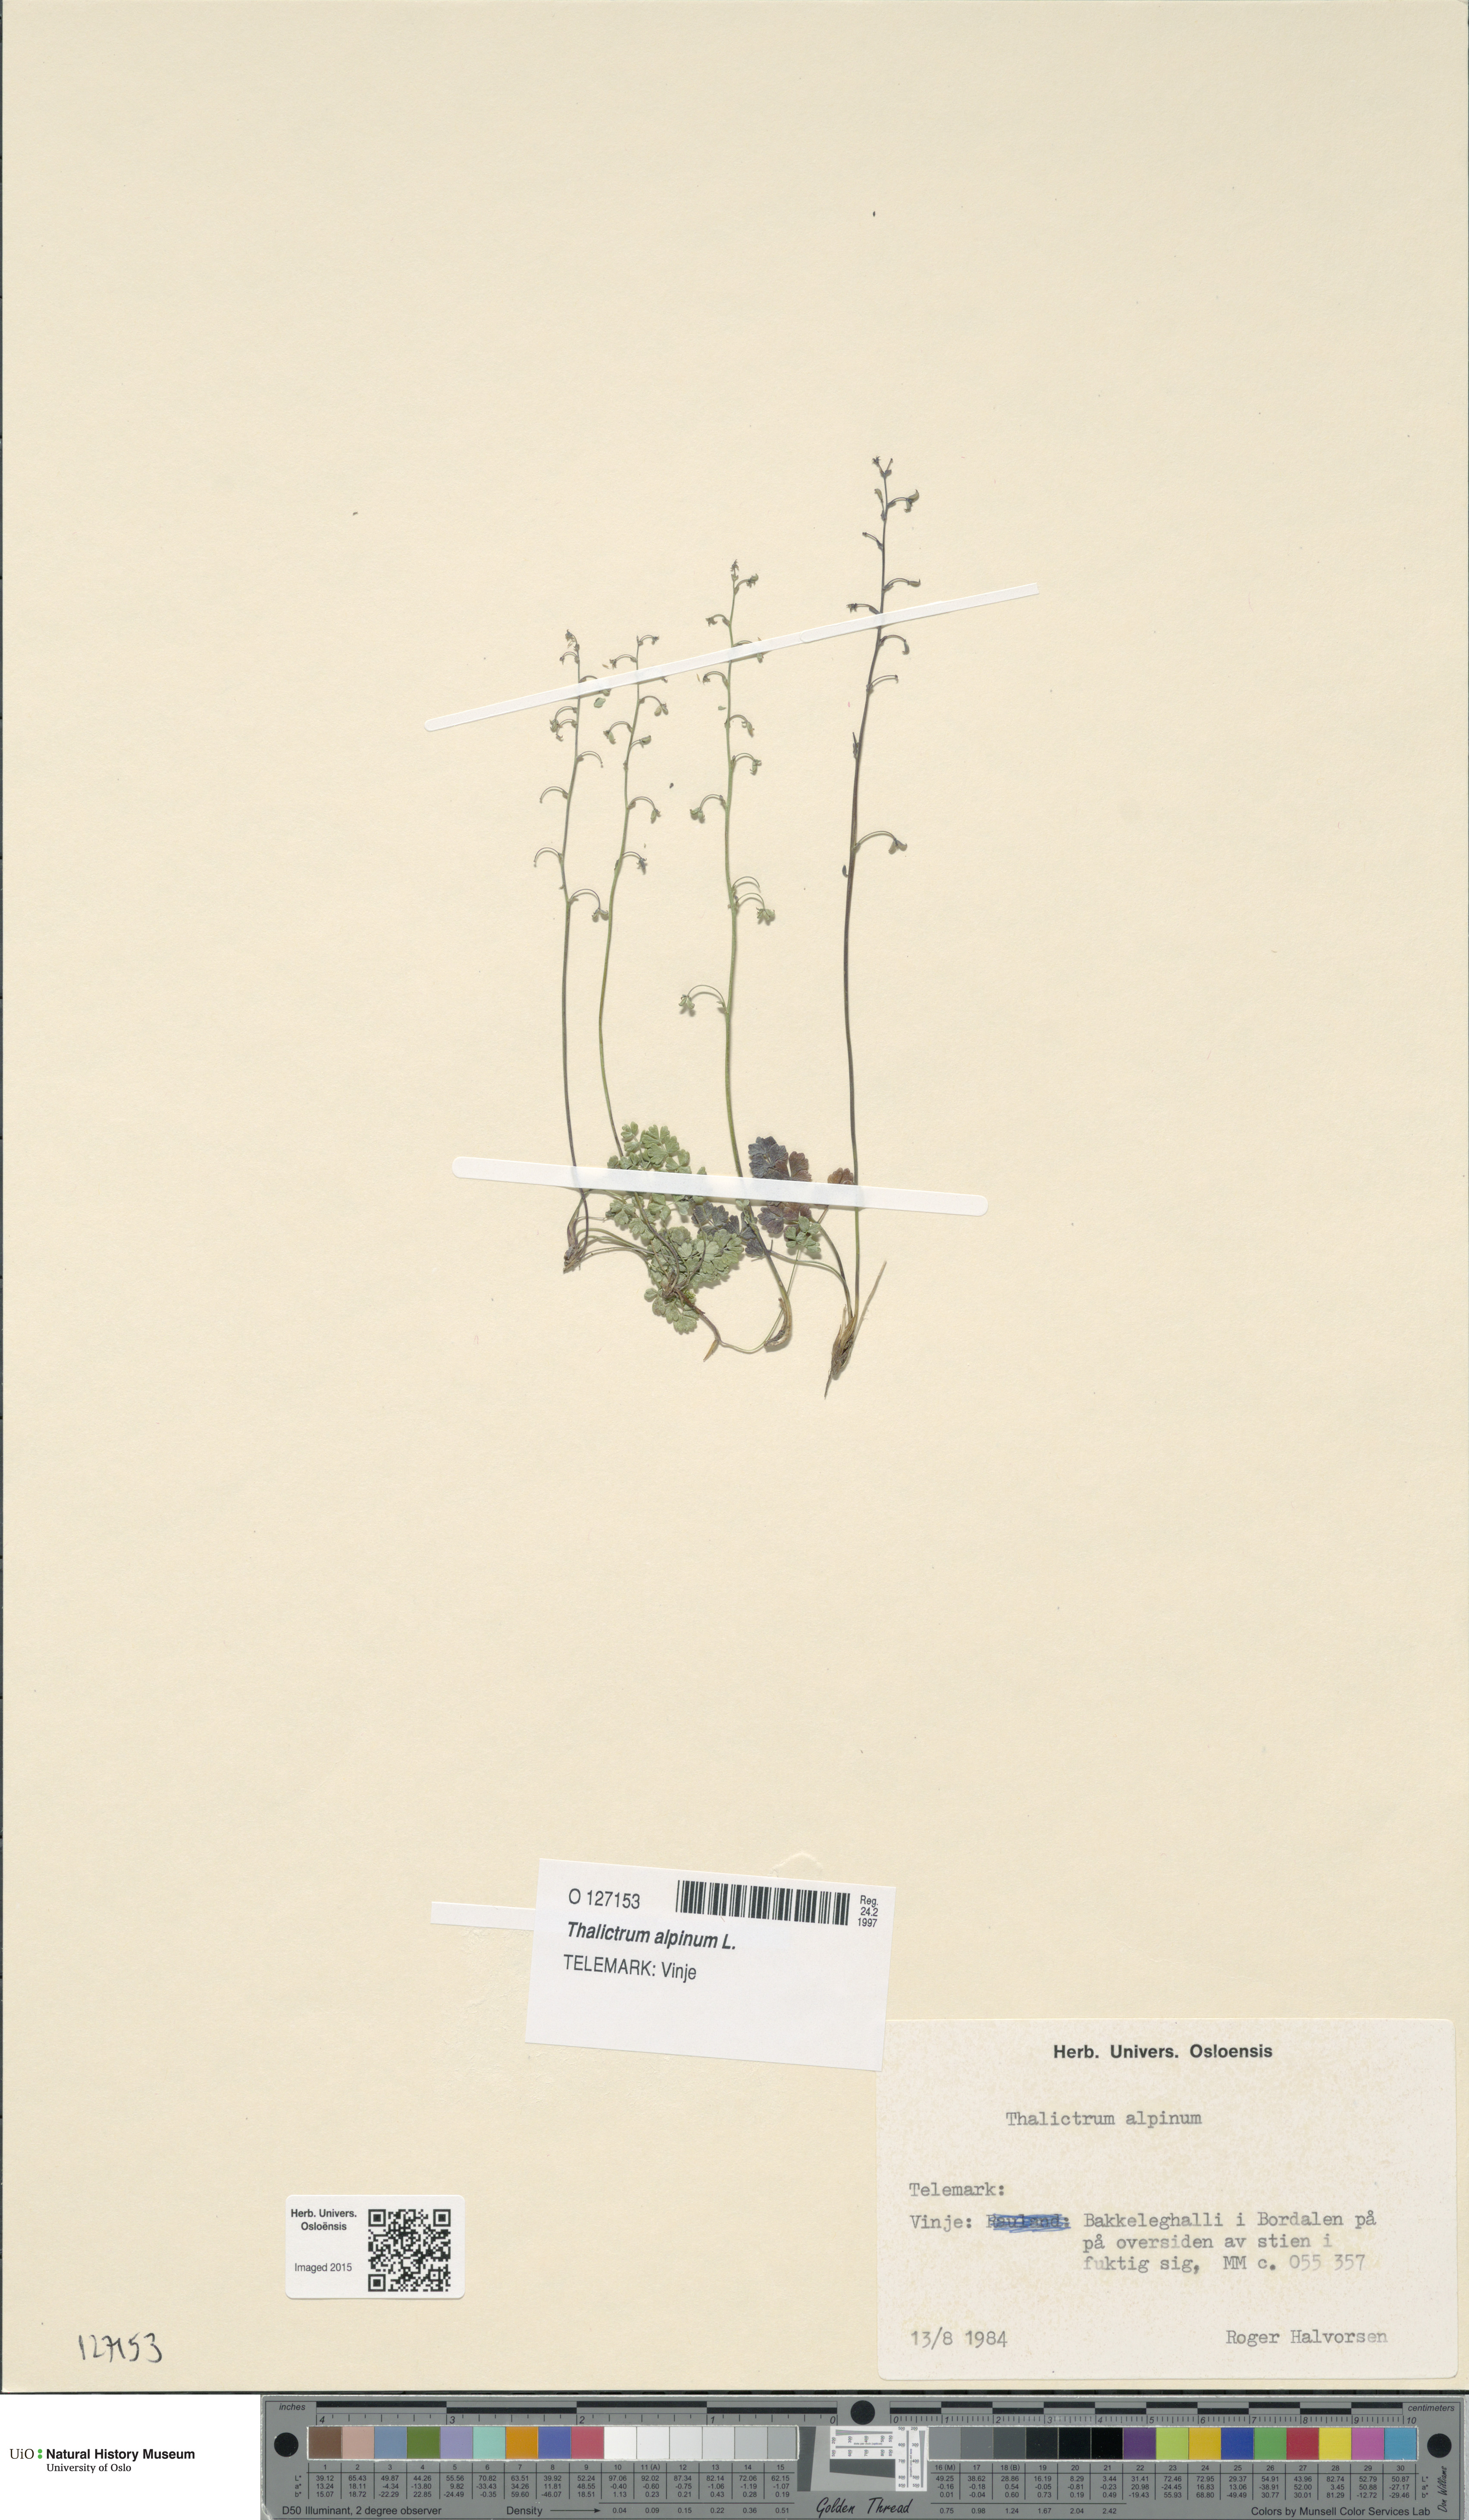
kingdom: Plantae
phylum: Tracheophyta
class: Magnoliopsida
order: Ranunculales
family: Ranunculaceae
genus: Thalictrum
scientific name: Thalictrum alpinum
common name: Alpine meadow-rue
